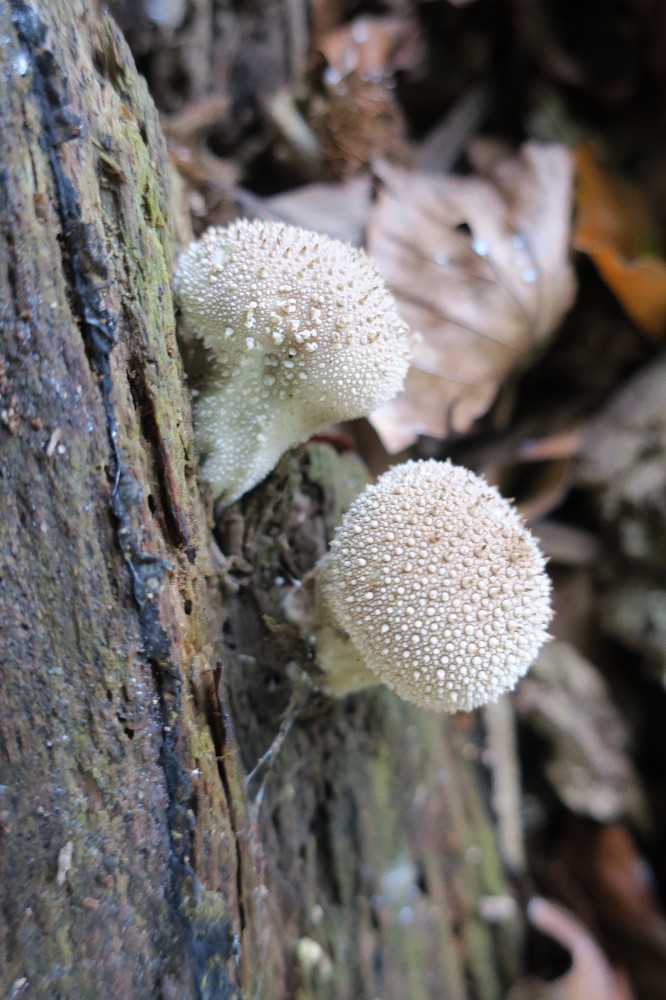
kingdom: Fungi
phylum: Basidiomycota
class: Agaricomycetes
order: Agaricales
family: Lycoperdaceae
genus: Lycoperdon
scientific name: Lycoperdon perlatum
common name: krystal-støvbold
